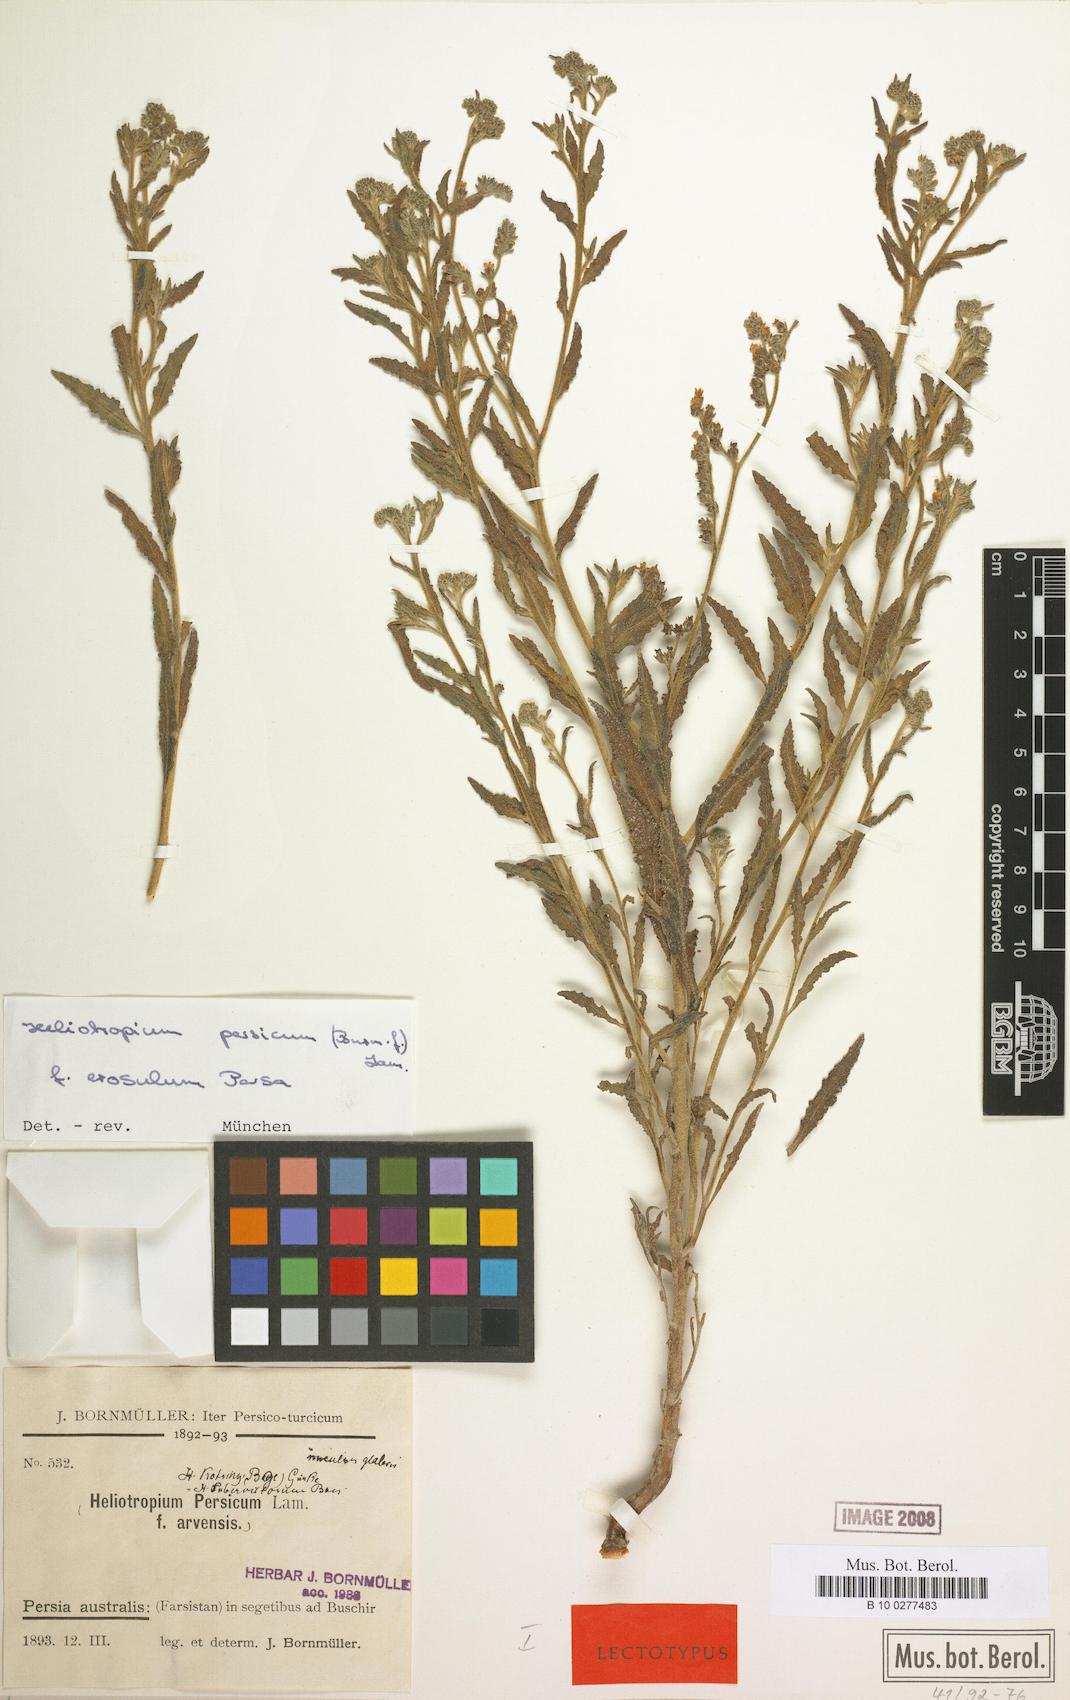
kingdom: Plantae
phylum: Tracheophyta
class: Magnoliopsida
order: Boraginales
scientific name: Boraginales
